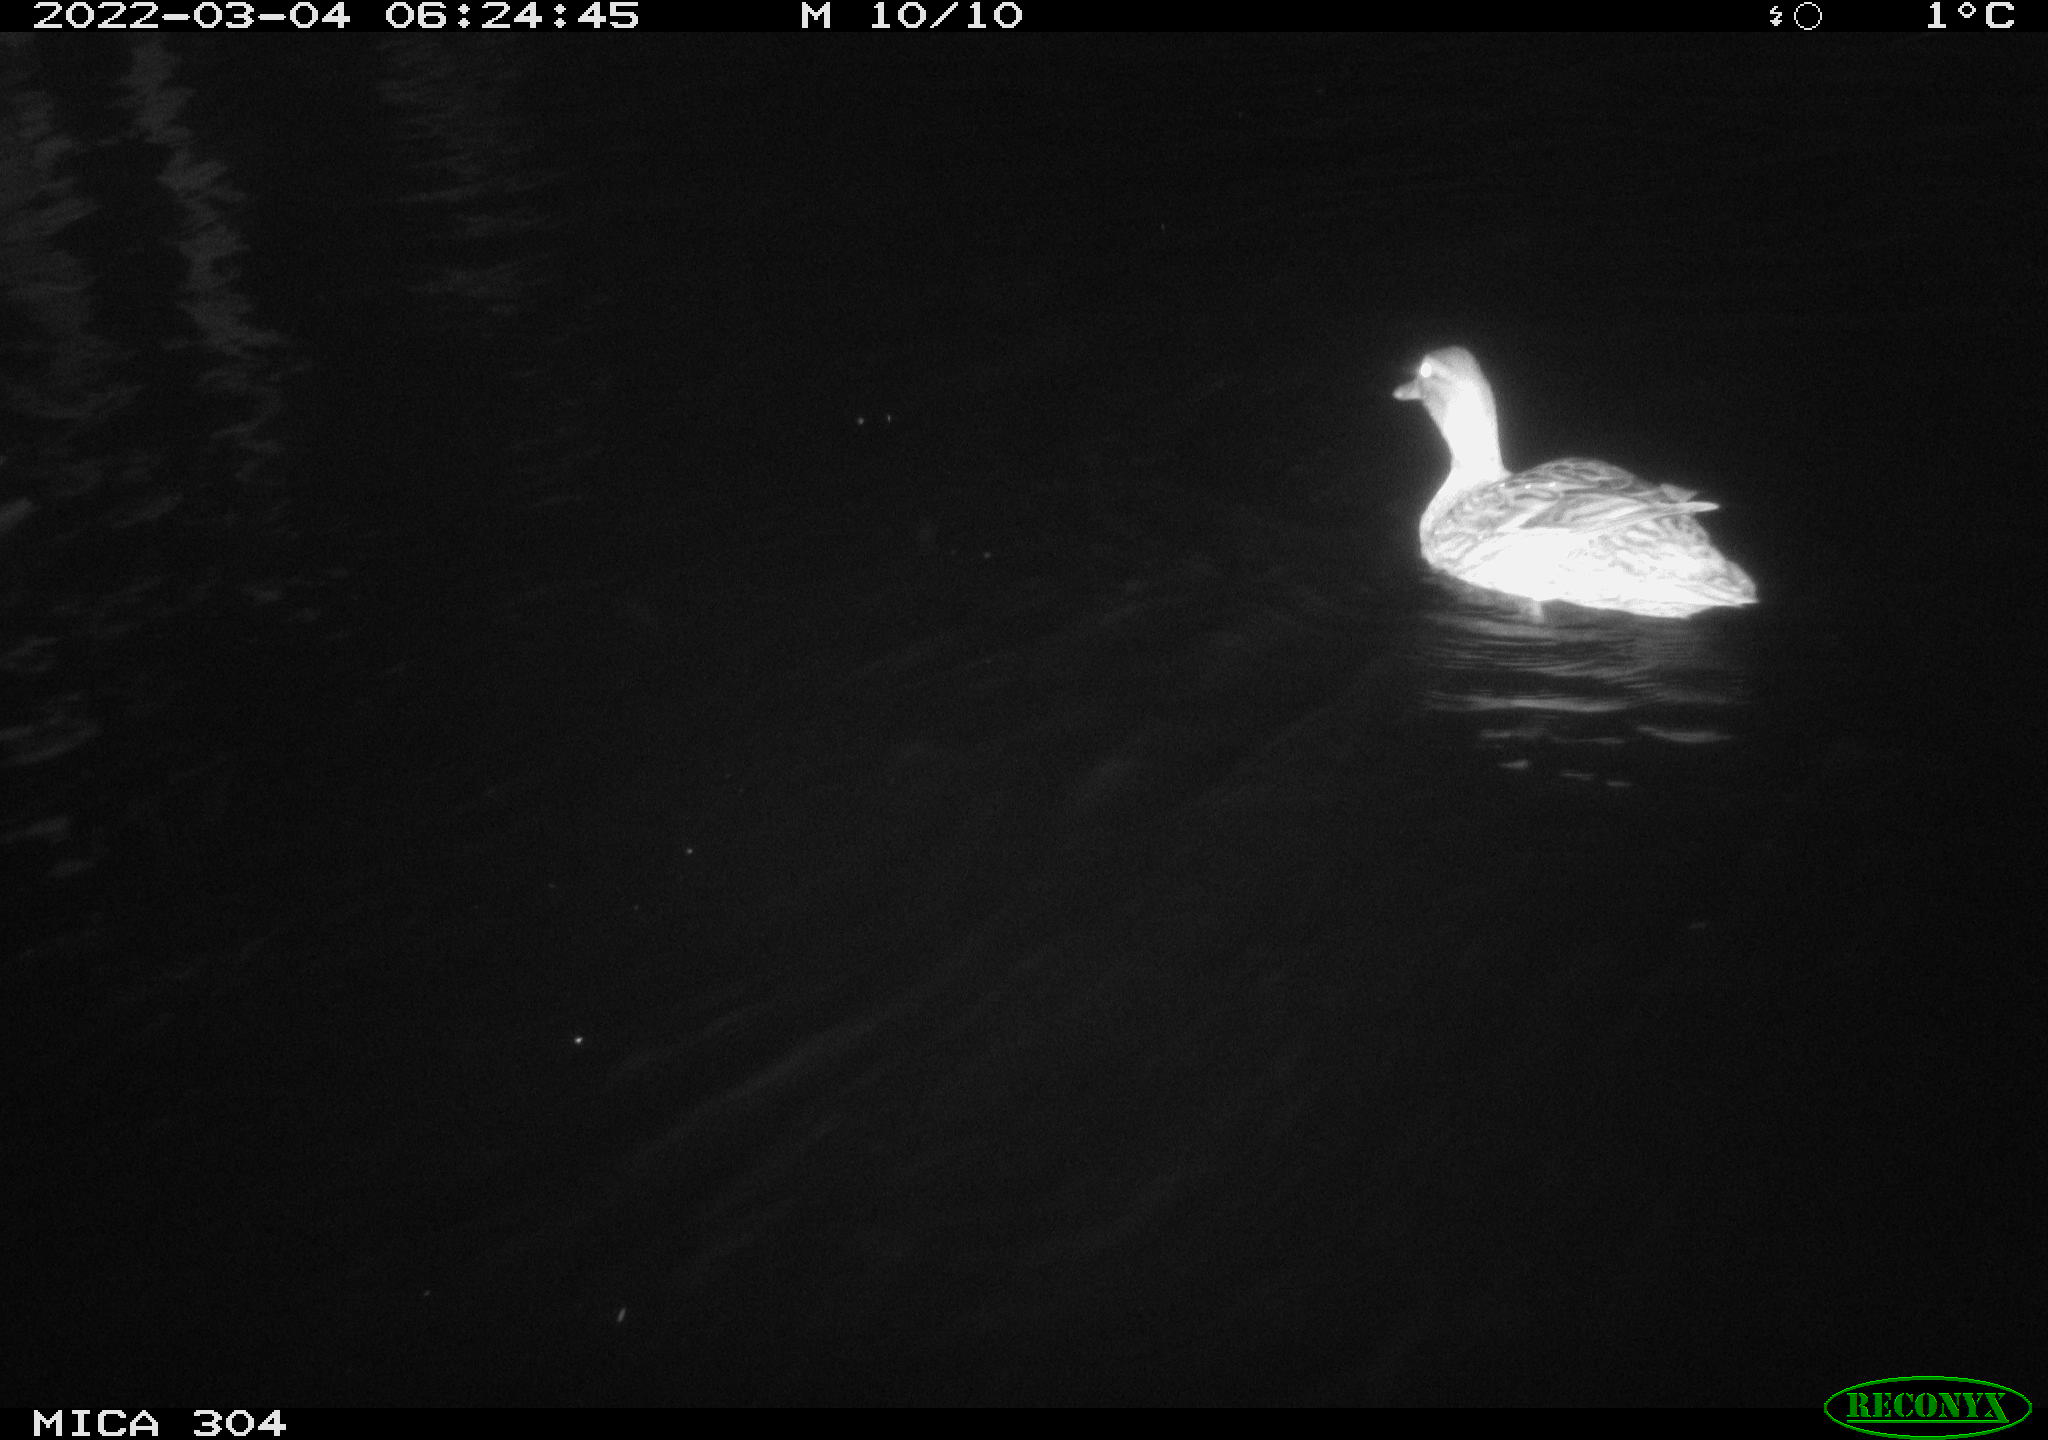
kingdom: Animalia
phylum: Chordata
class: Aves
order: Anseriformes
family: Anatidae
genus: Anas
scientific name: Anas platyrhynchos
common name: Mallard
